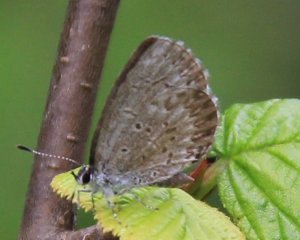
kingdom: Animalia
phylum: Arthropoda
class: Insecta
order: Lepidoptera
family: Lycaenidae
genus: Celastrina
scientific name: Celastrina
